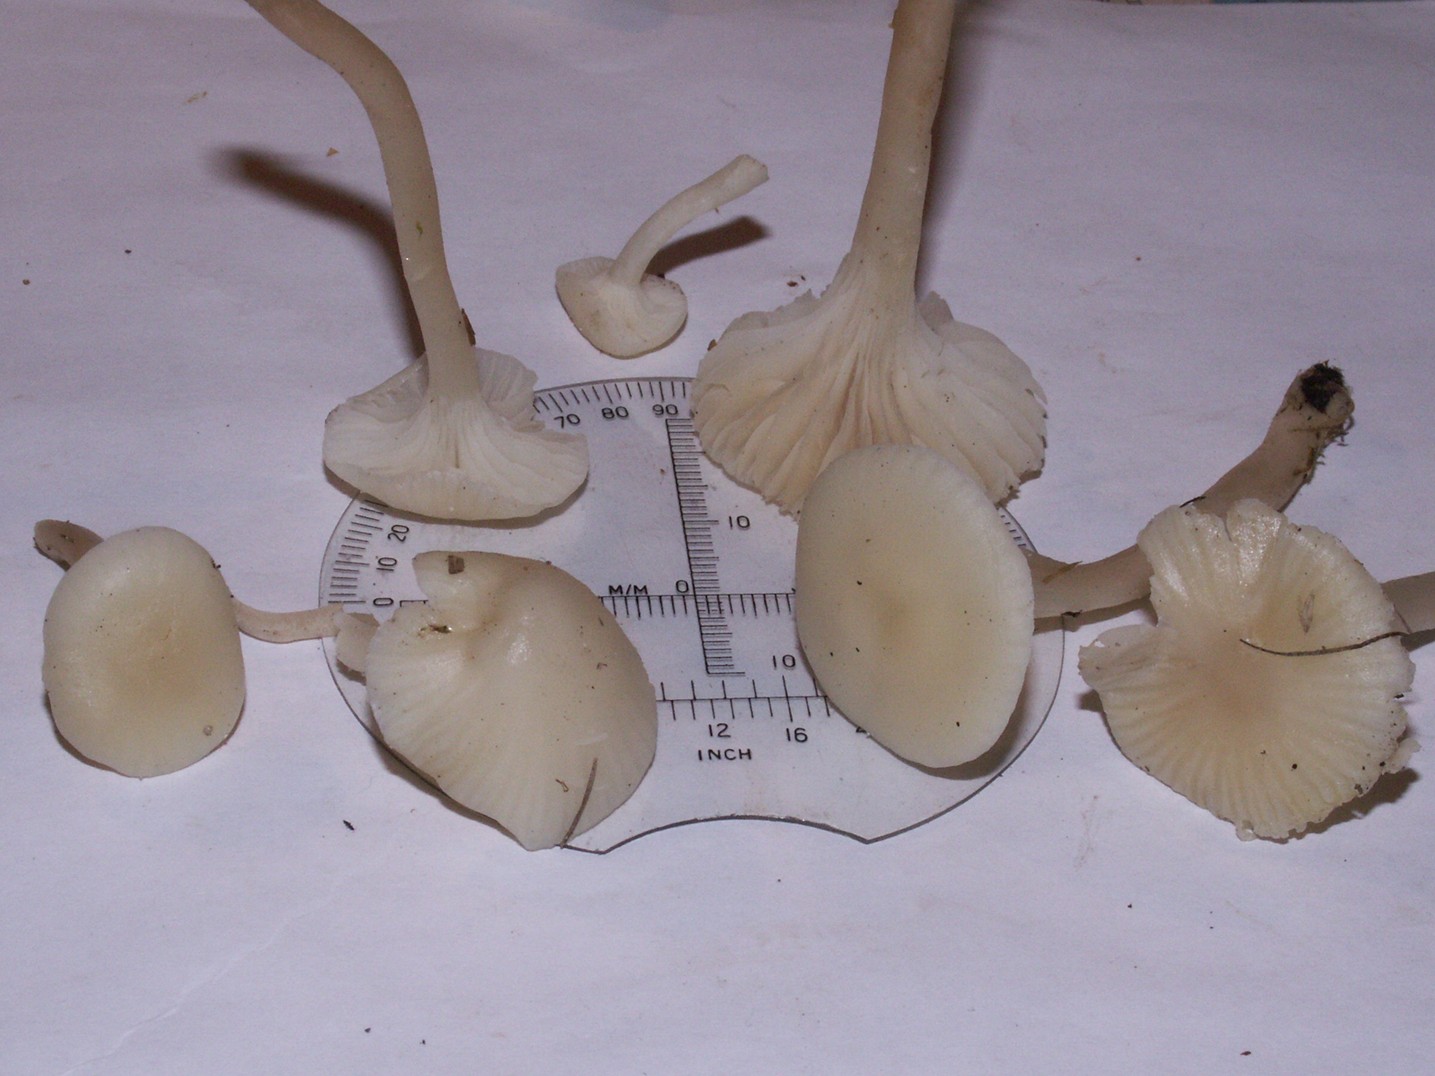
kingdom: Fungi
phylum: Basidiomycota
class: Agaricomycetes
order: Agaricales
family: Hygrophoraceae
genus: Cuphophyllus
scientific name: Cuphophyllus virgineus
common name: snehvid vokshat
